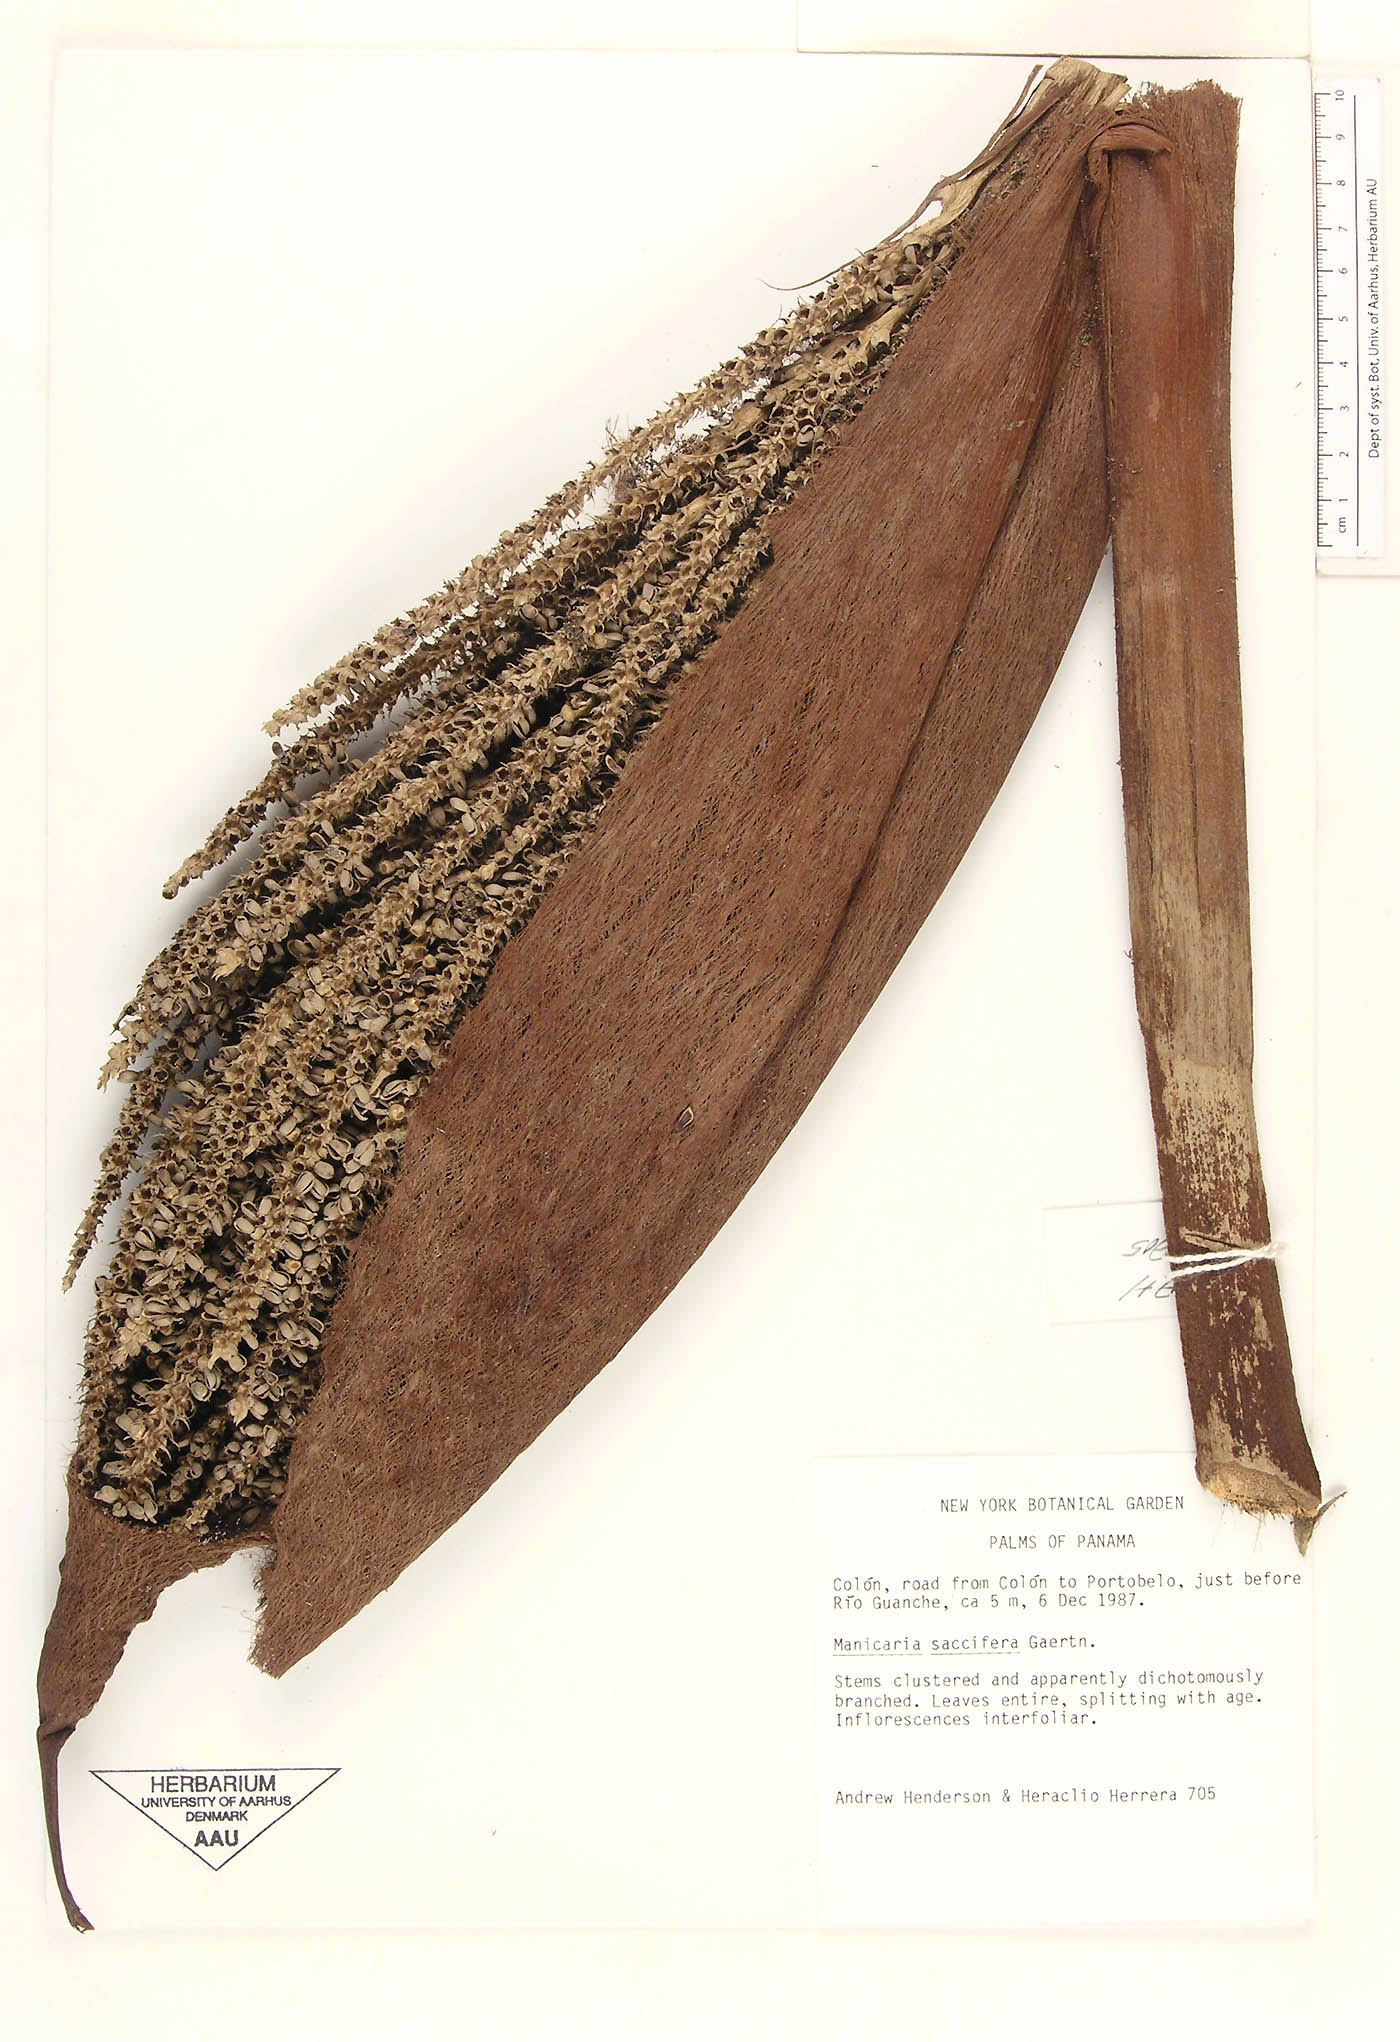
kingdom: Plantae
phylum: Tracheophyta
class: Liliopsida
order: Arecales
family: Arecaceae
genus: Manicaria
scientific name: Manicaria saccifera
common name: Sea coconut
